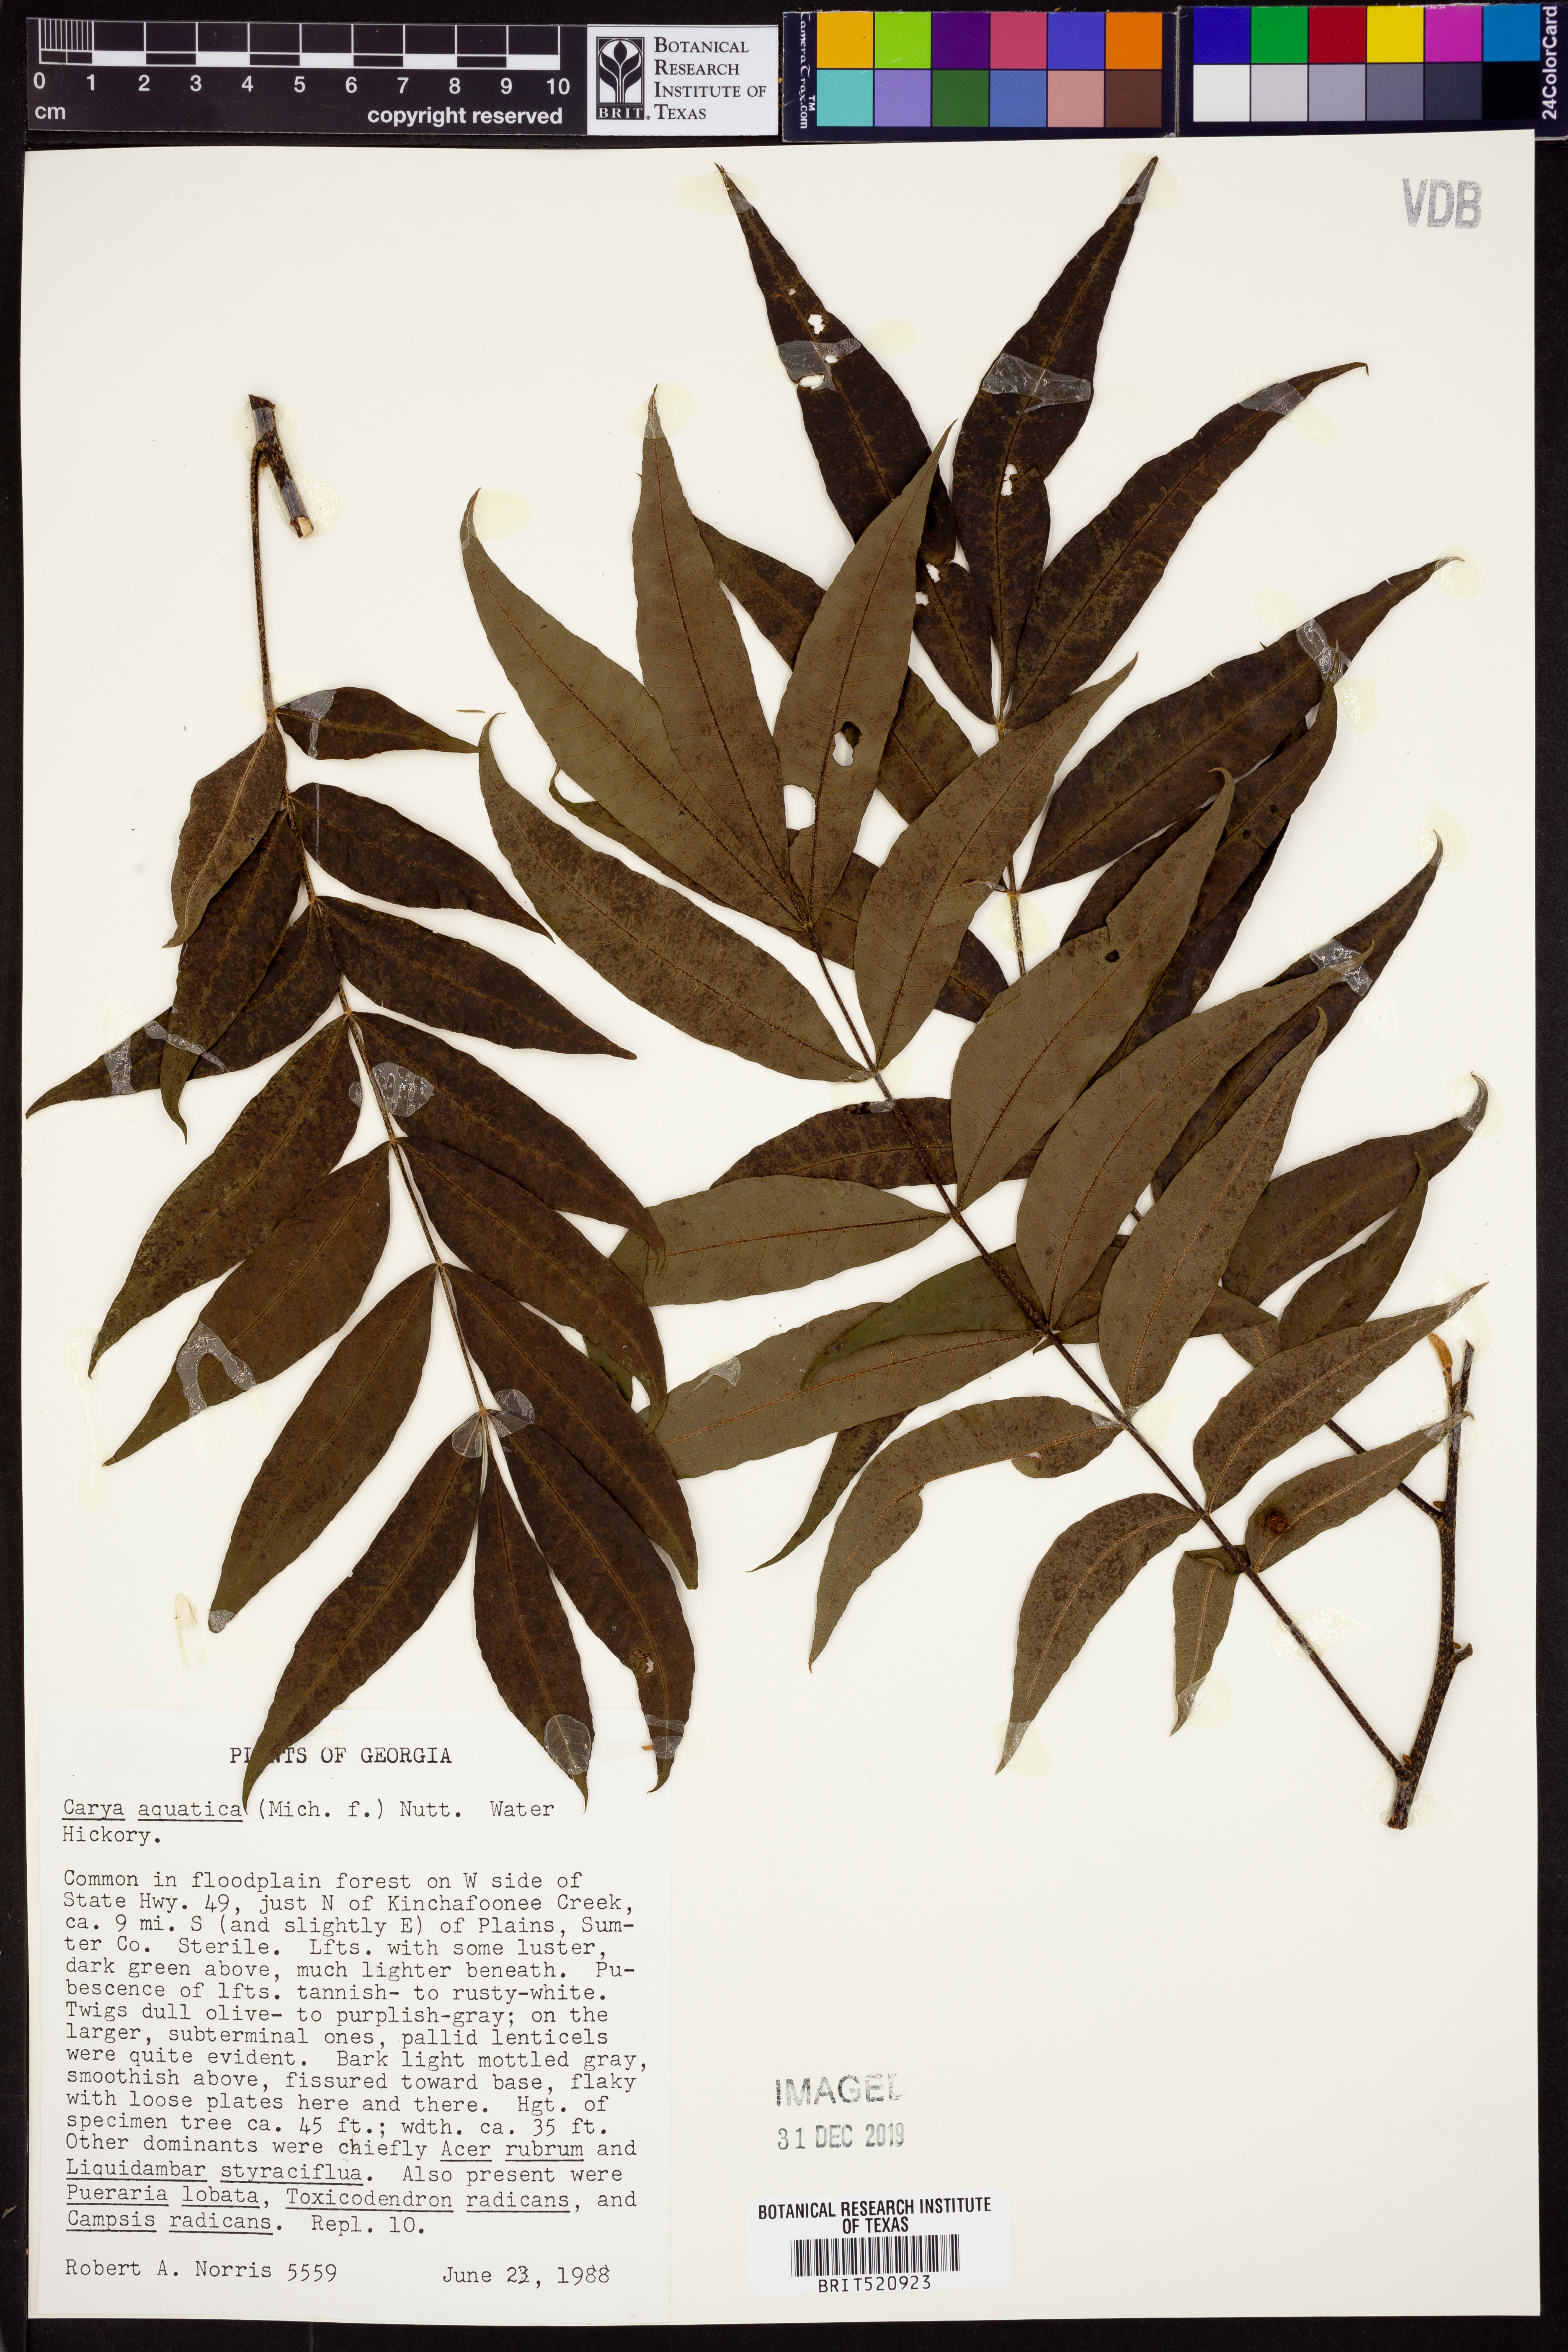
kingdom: Plantae
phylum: Tracheophyta
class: Magnoliopsida
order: Fagales
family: Juglandaceae
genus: Carya
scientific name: Carya aquatica
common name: Water hickory
